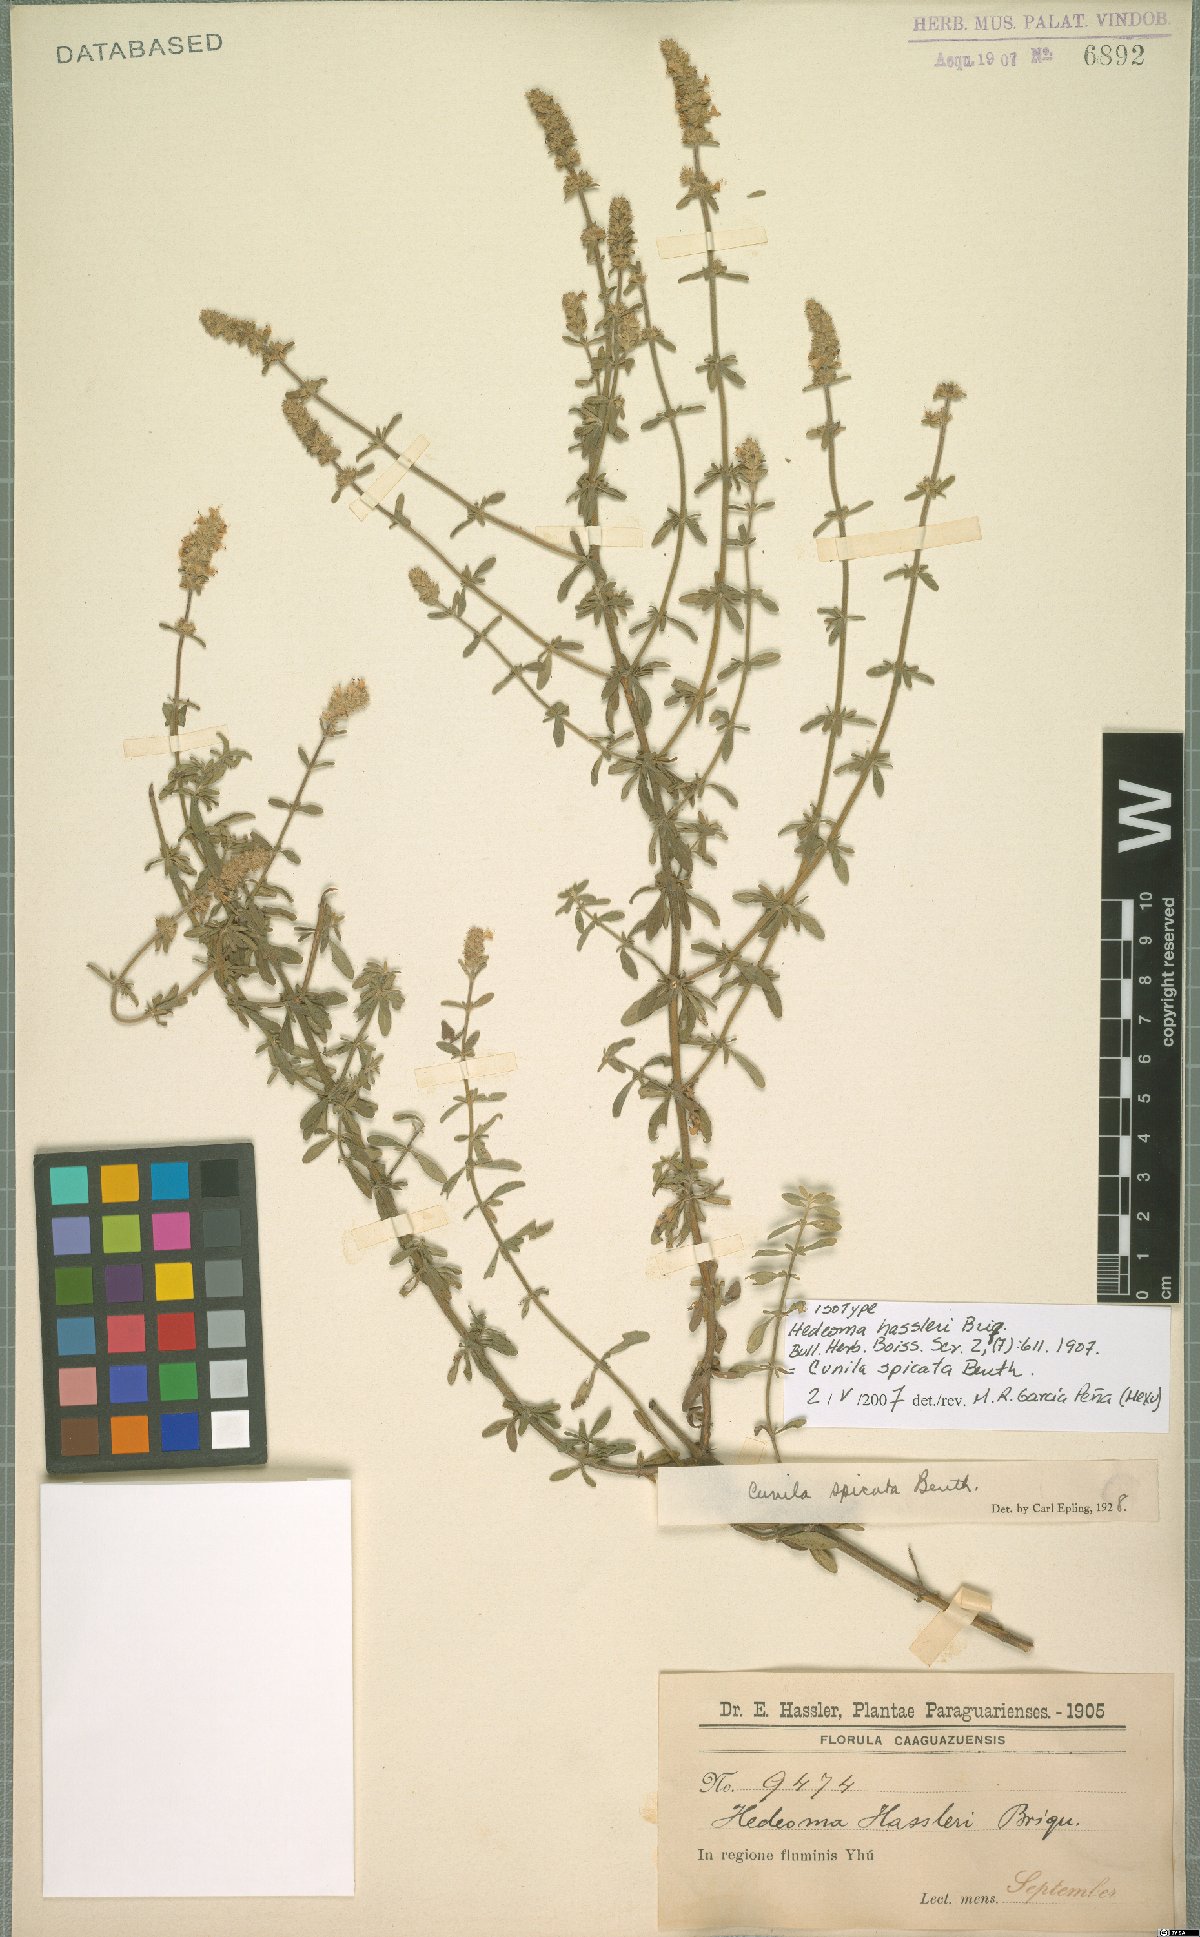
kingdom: Plantae
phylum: Tracheophyta
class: Magnoliopsida
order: Lamiales
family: Lamiaceae
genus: Cunila
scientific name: Cunila spicata
